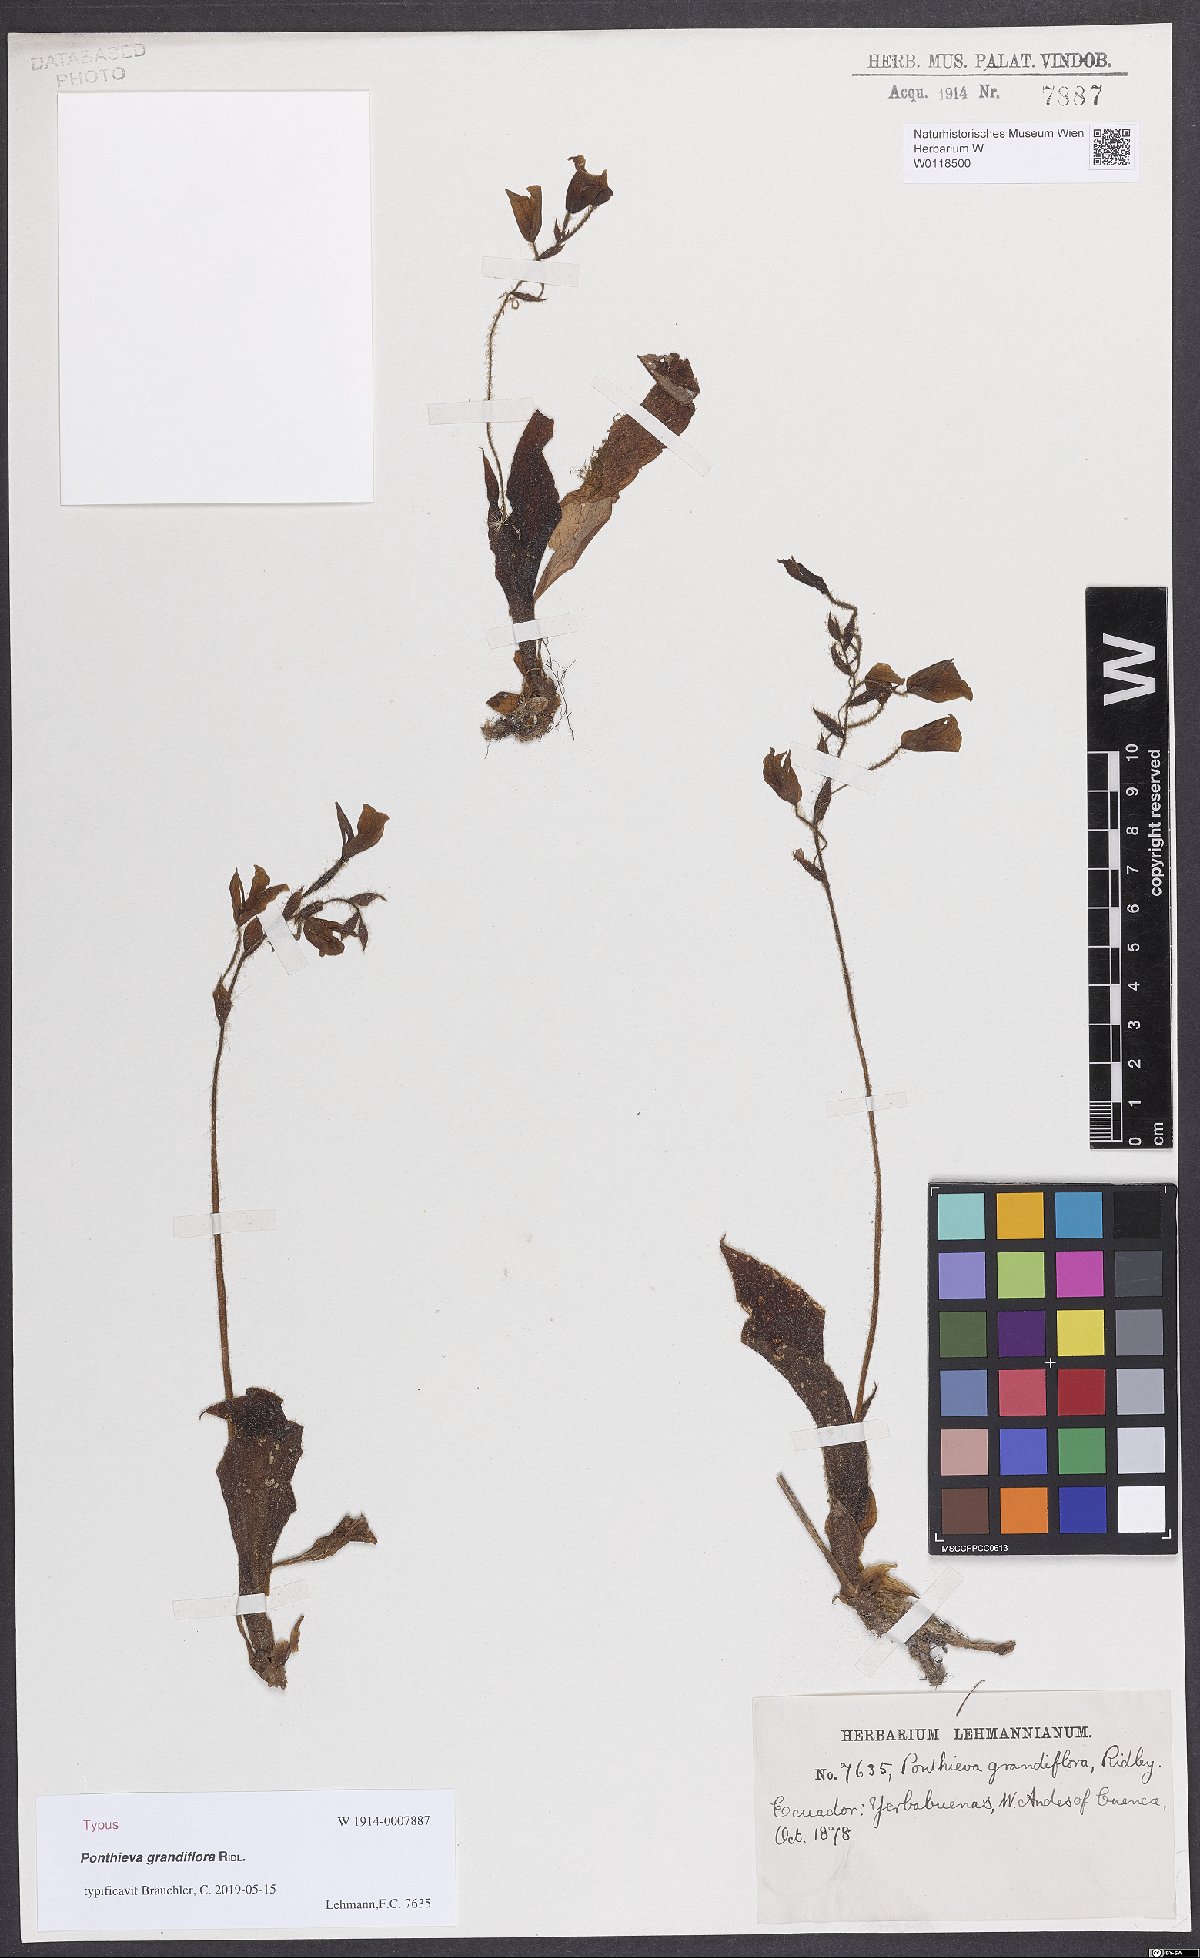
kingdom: Plantae
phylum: Tracheophyta
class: Liliopsida
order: Asparagales
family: Orchidaceae
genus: Ponthieva
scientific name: Ponthieva grandiflora
